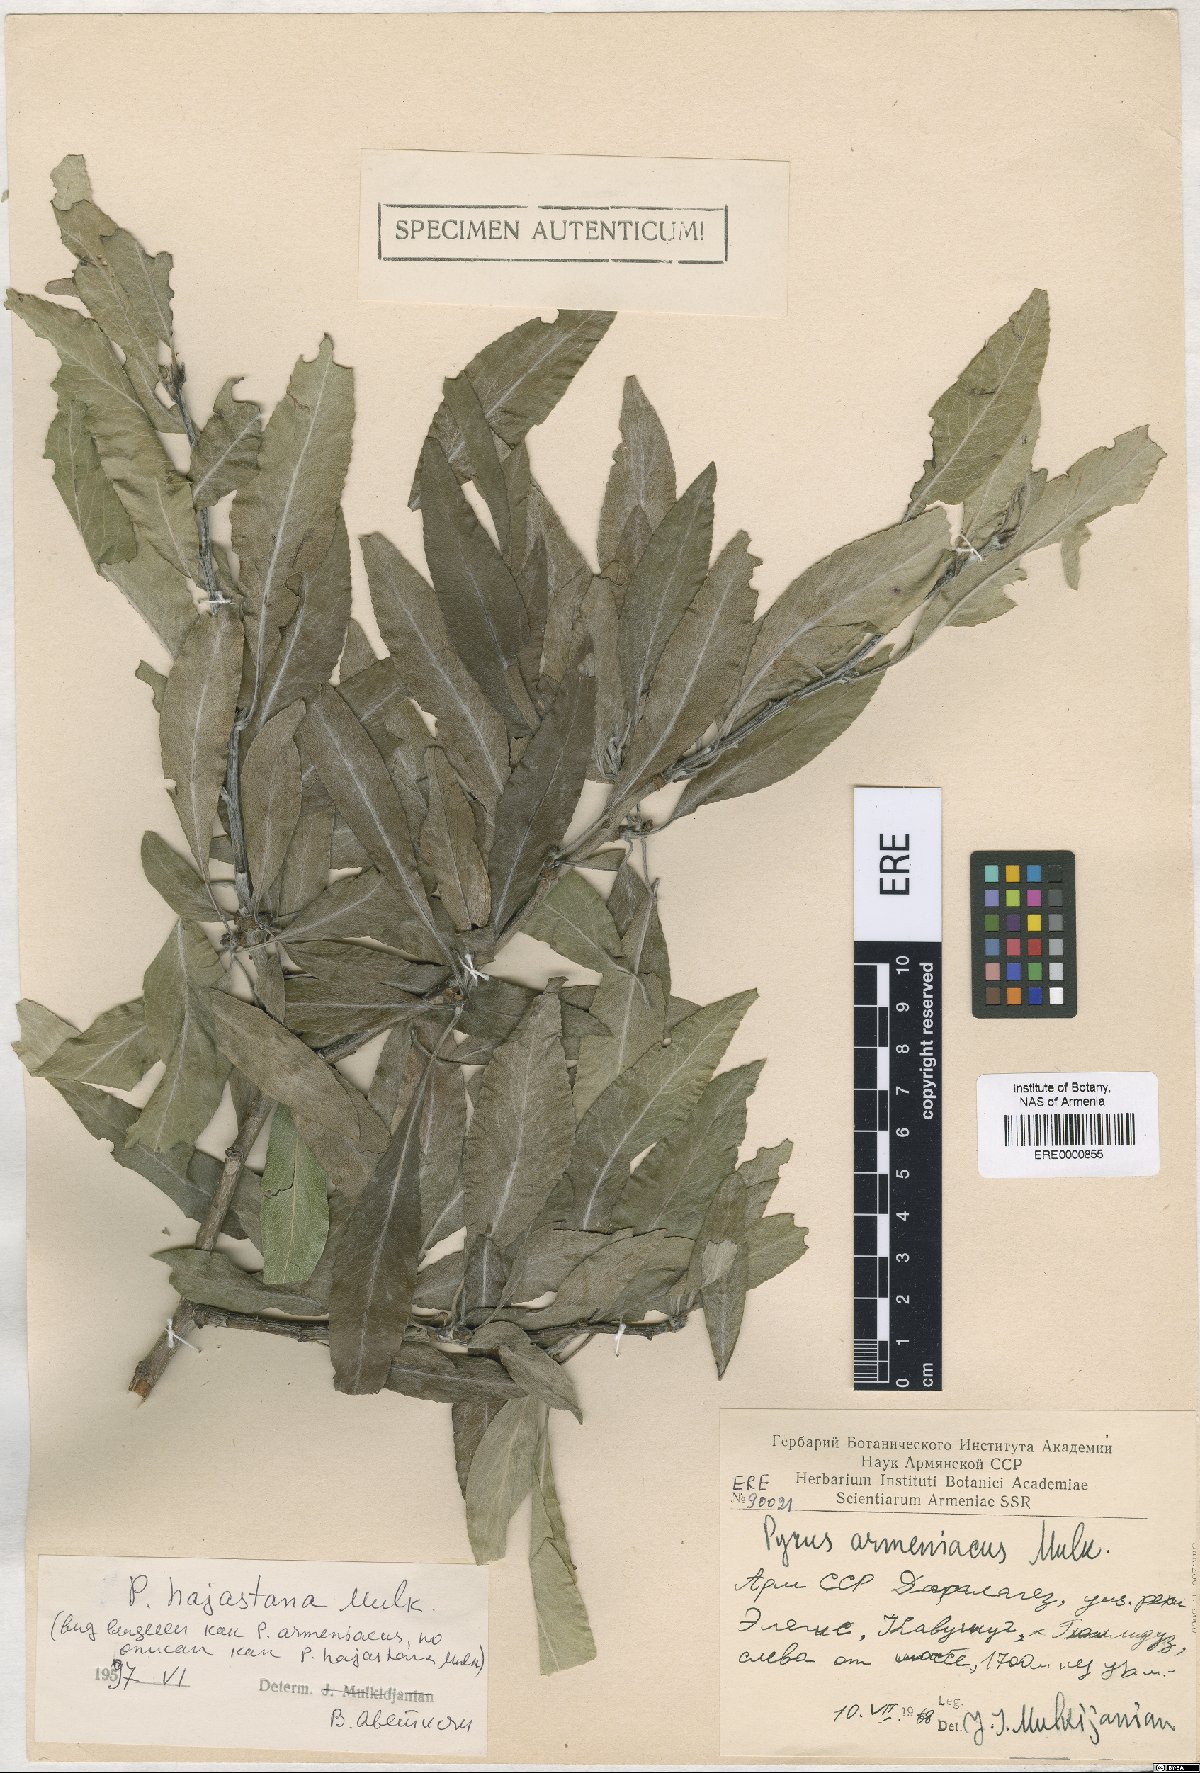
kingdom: Plantae
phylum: Tracheophyta
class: Magnoliopsida
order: Rosales
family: Rosaceae
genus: Pyrus
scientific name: Pyrus hajastana
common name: Hayastanyan pear
